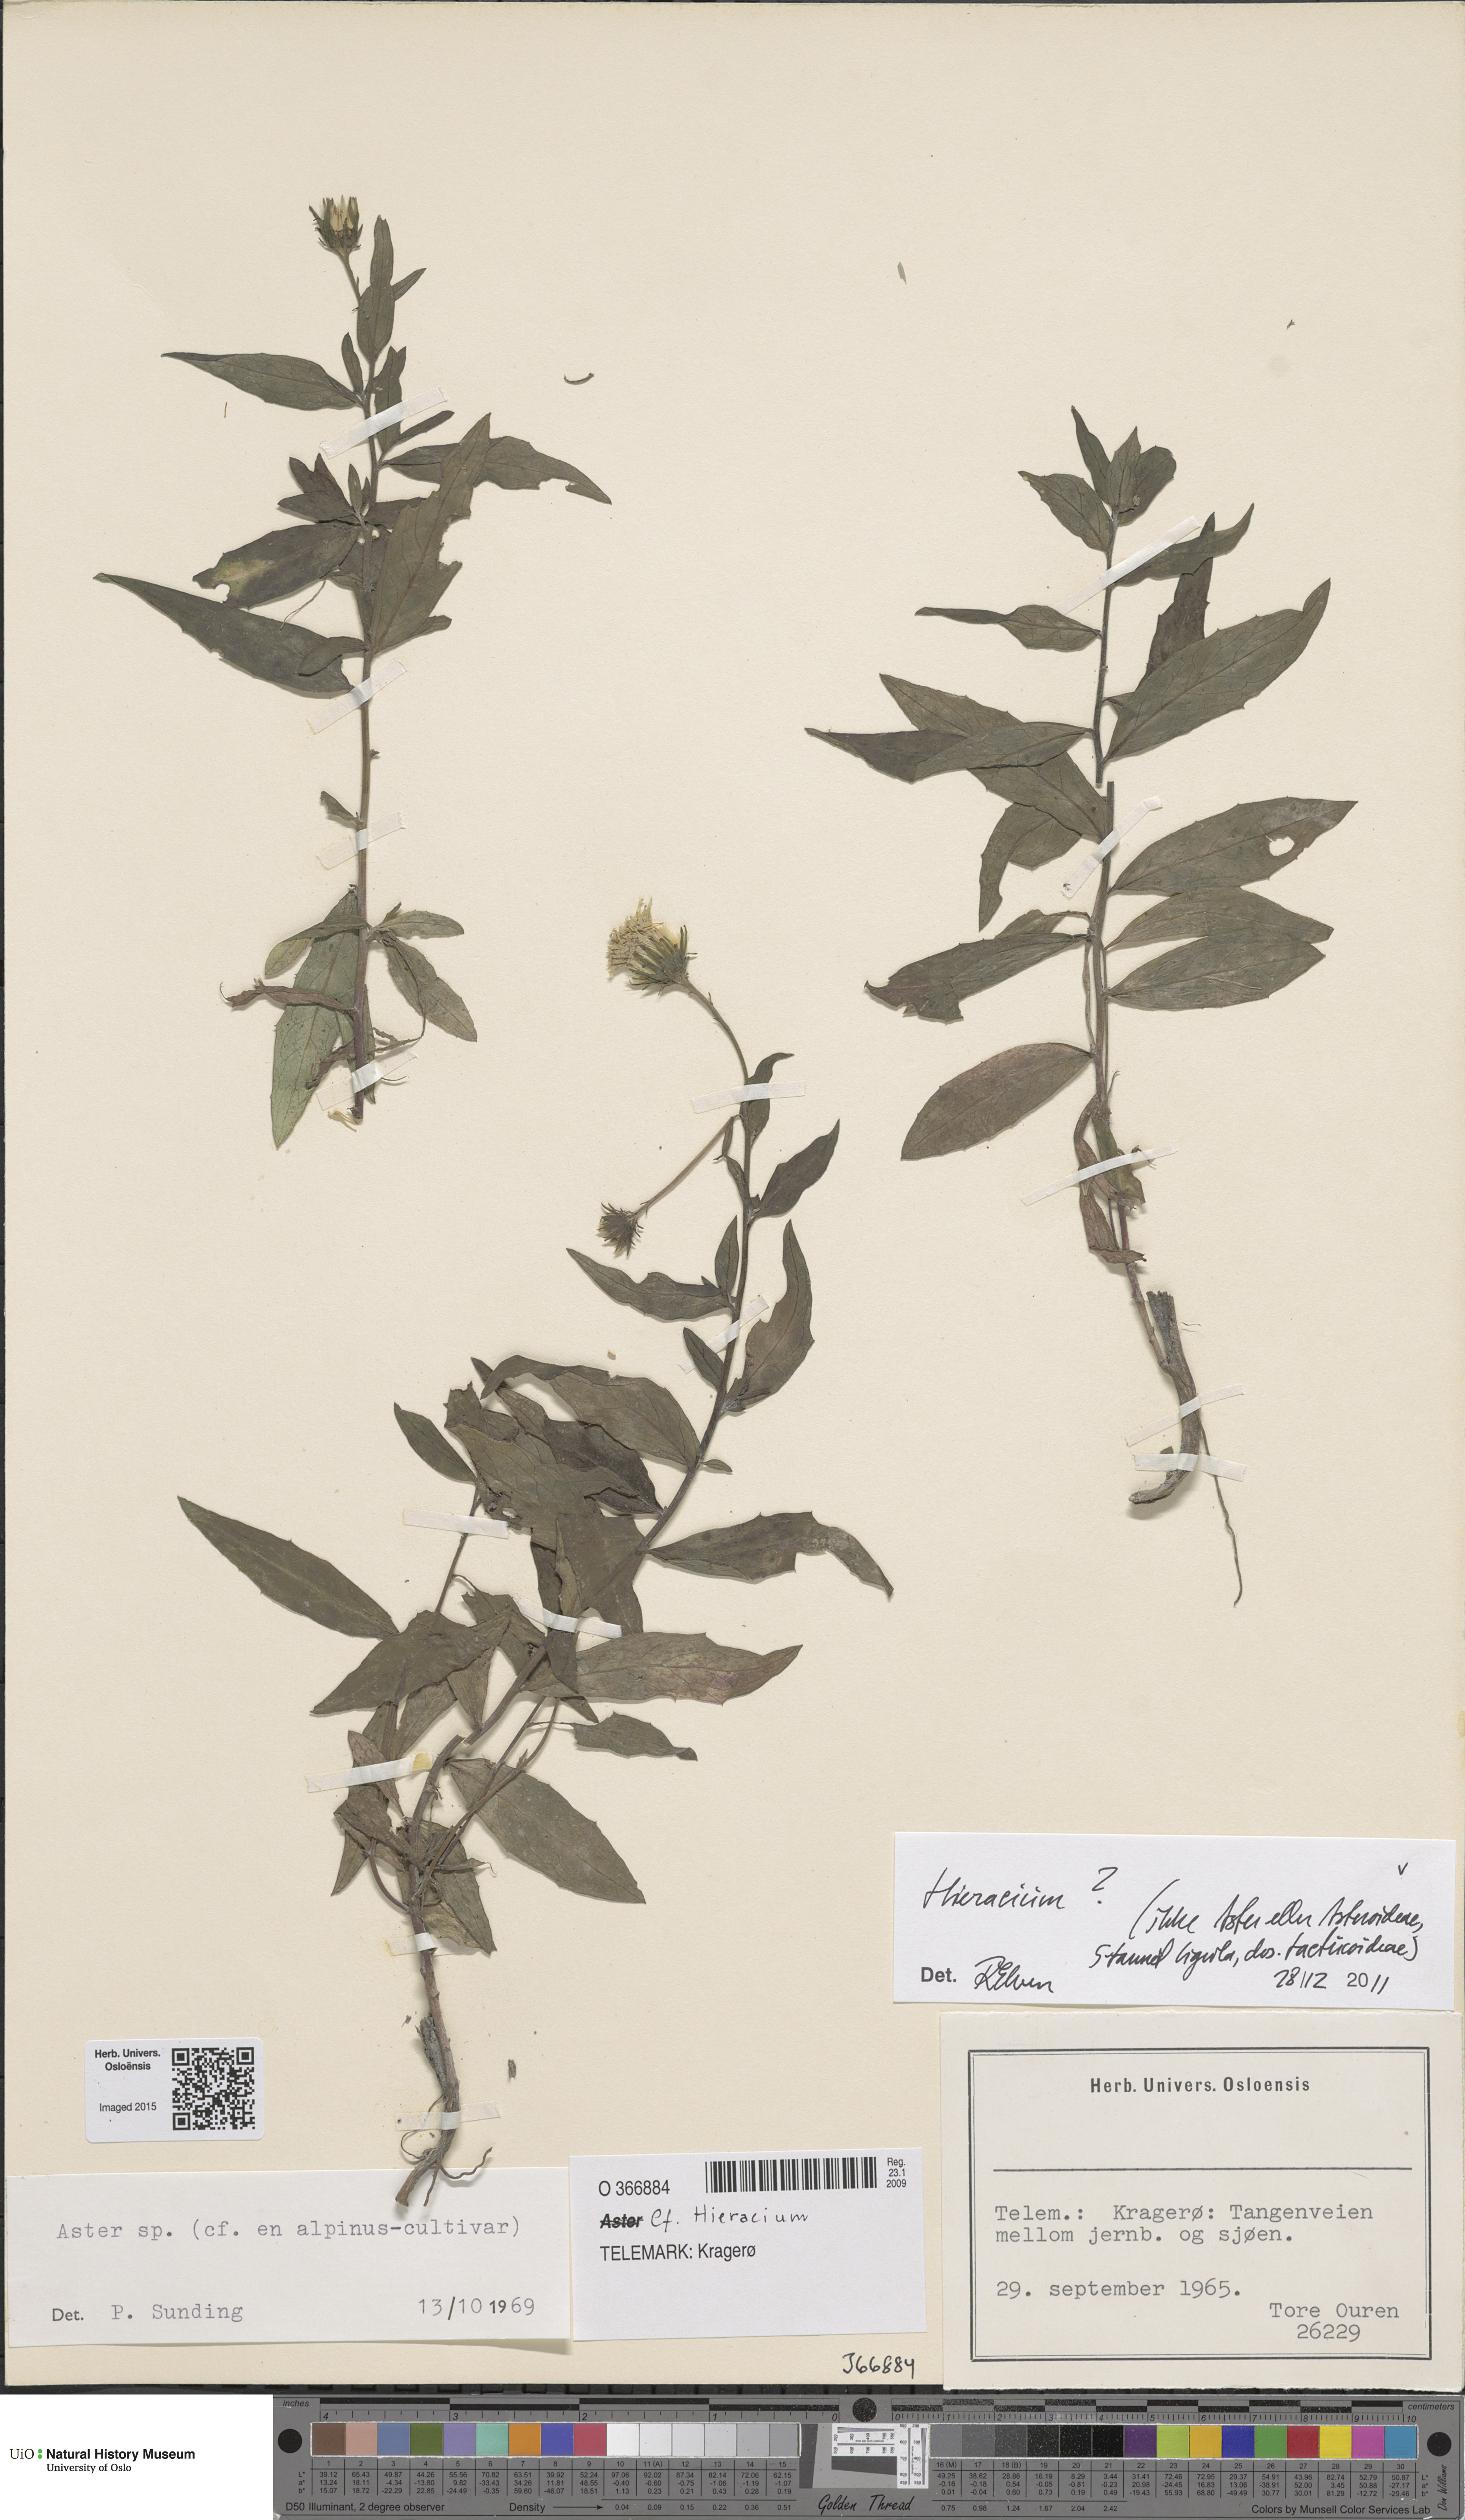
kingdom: Plantae
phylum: Tracheophyta
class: Magnoliopsida
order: Asterales
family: Asteraceae
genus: Hieracium
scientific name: Hieracium
